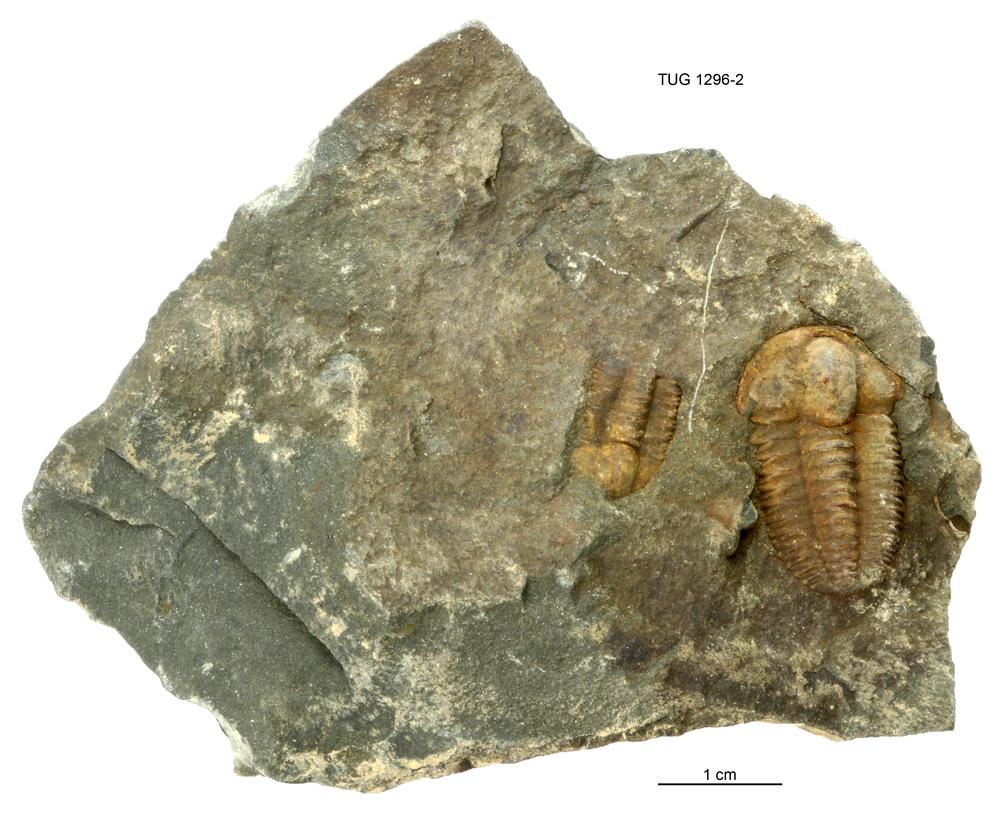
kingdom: Animalia
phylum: Arthropoda
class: Trilobita
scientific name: Trilobita
